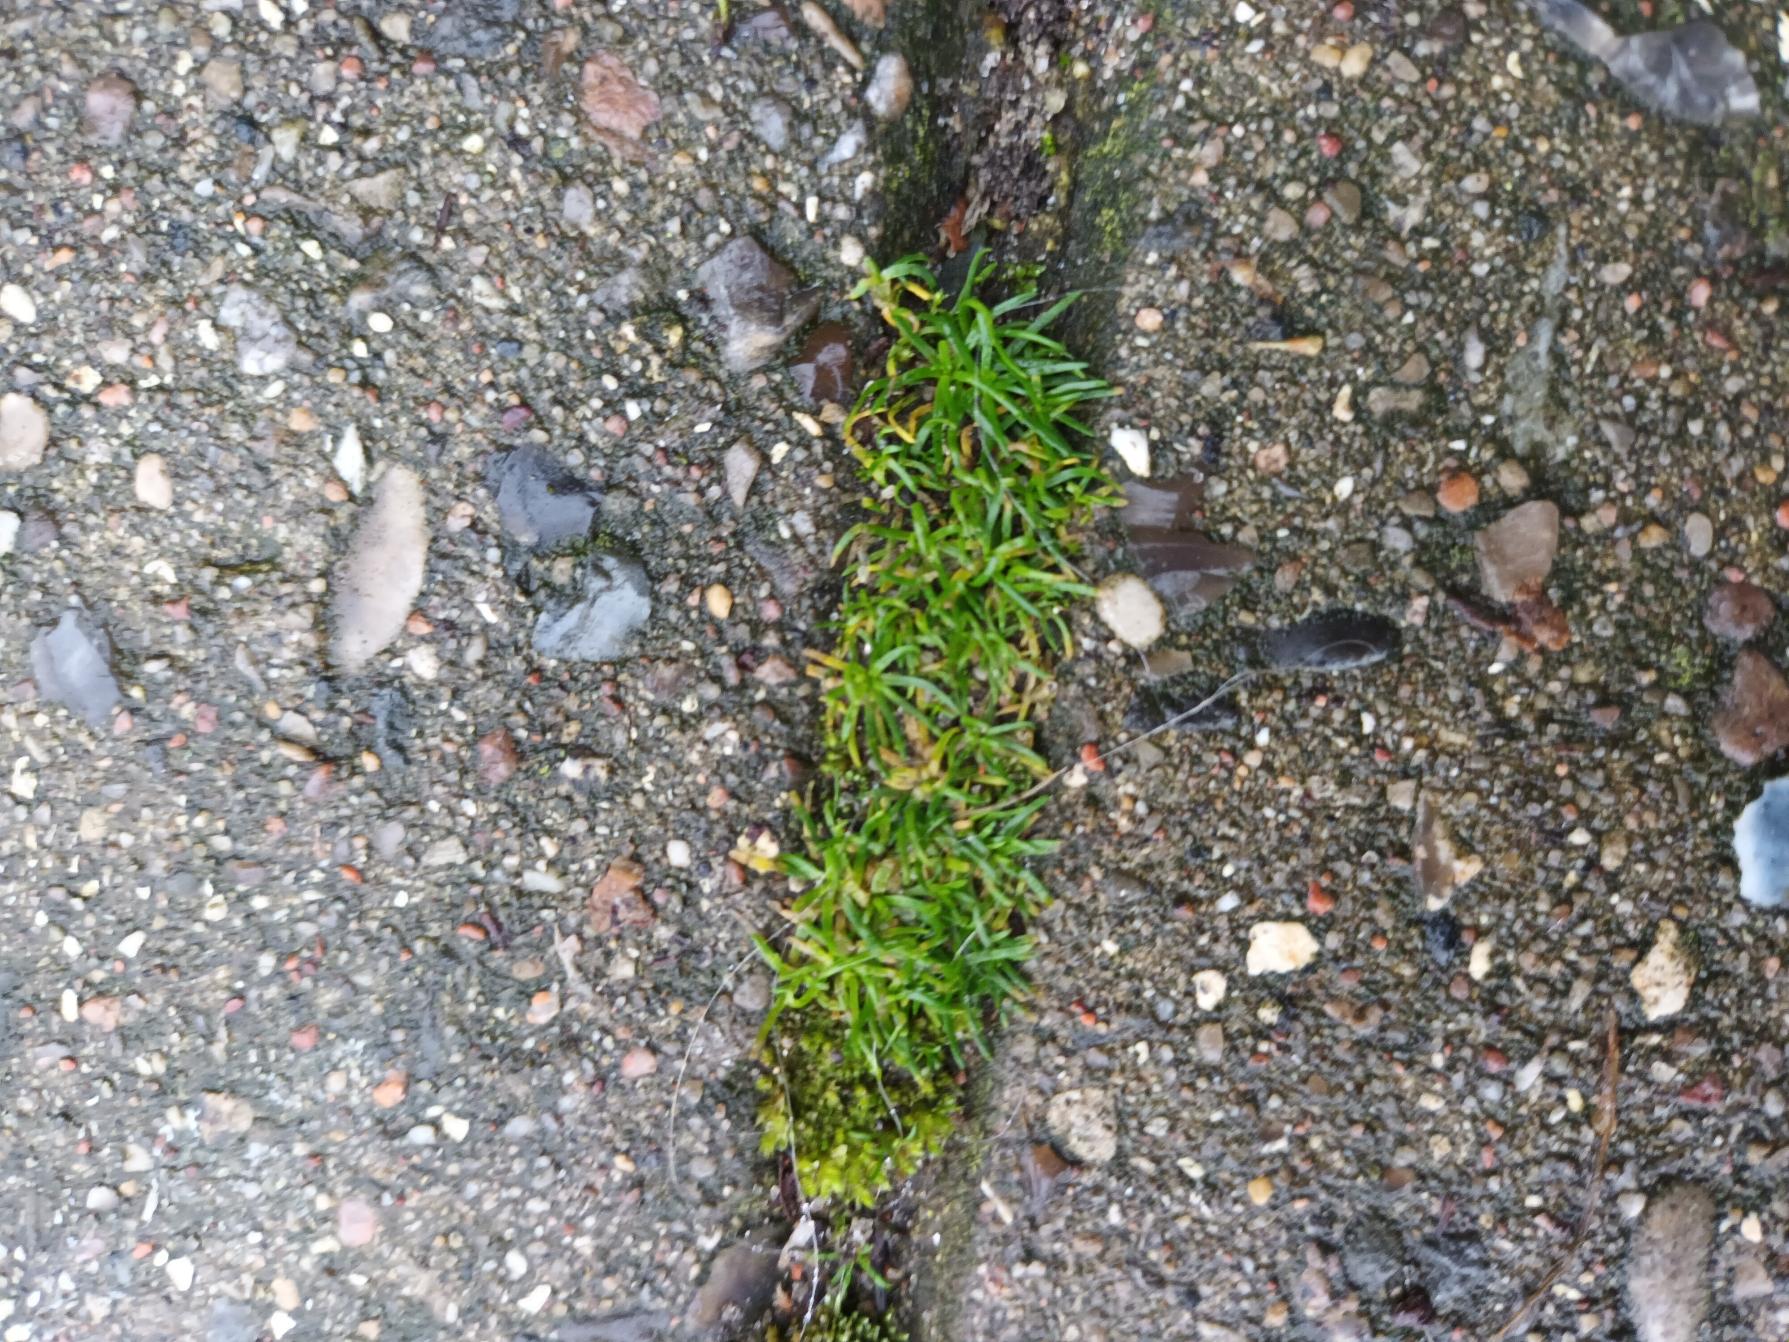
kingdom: Plantae
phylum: Tracheophyta
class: Magnoliopsida
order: Caryophyllales
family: Caryophyllaceae
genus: Sagina
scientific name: Sagina procumbens
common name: Almindelig firling
